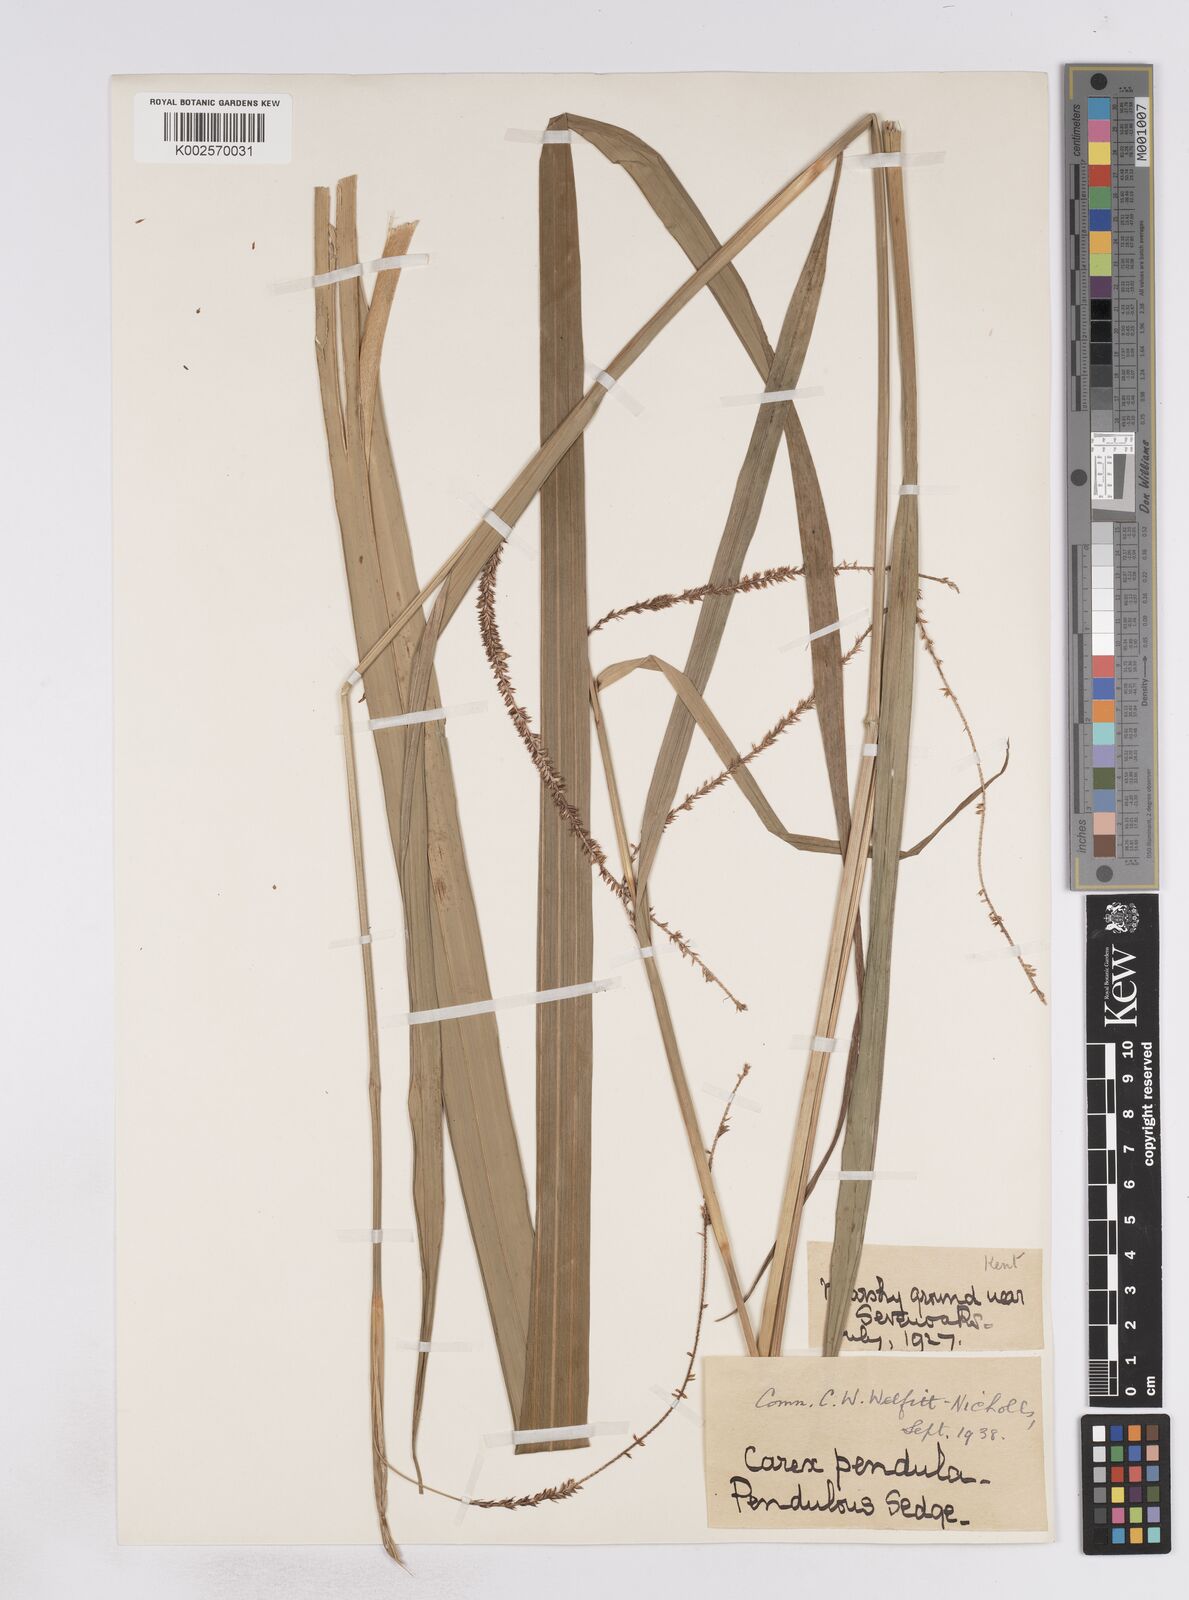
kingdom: Plantae
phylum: Tracheophyta
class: Liliopsida
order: Poales
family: Cyperaceae
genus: Carex
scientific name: Carex pendula
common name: Pendulous sedge
